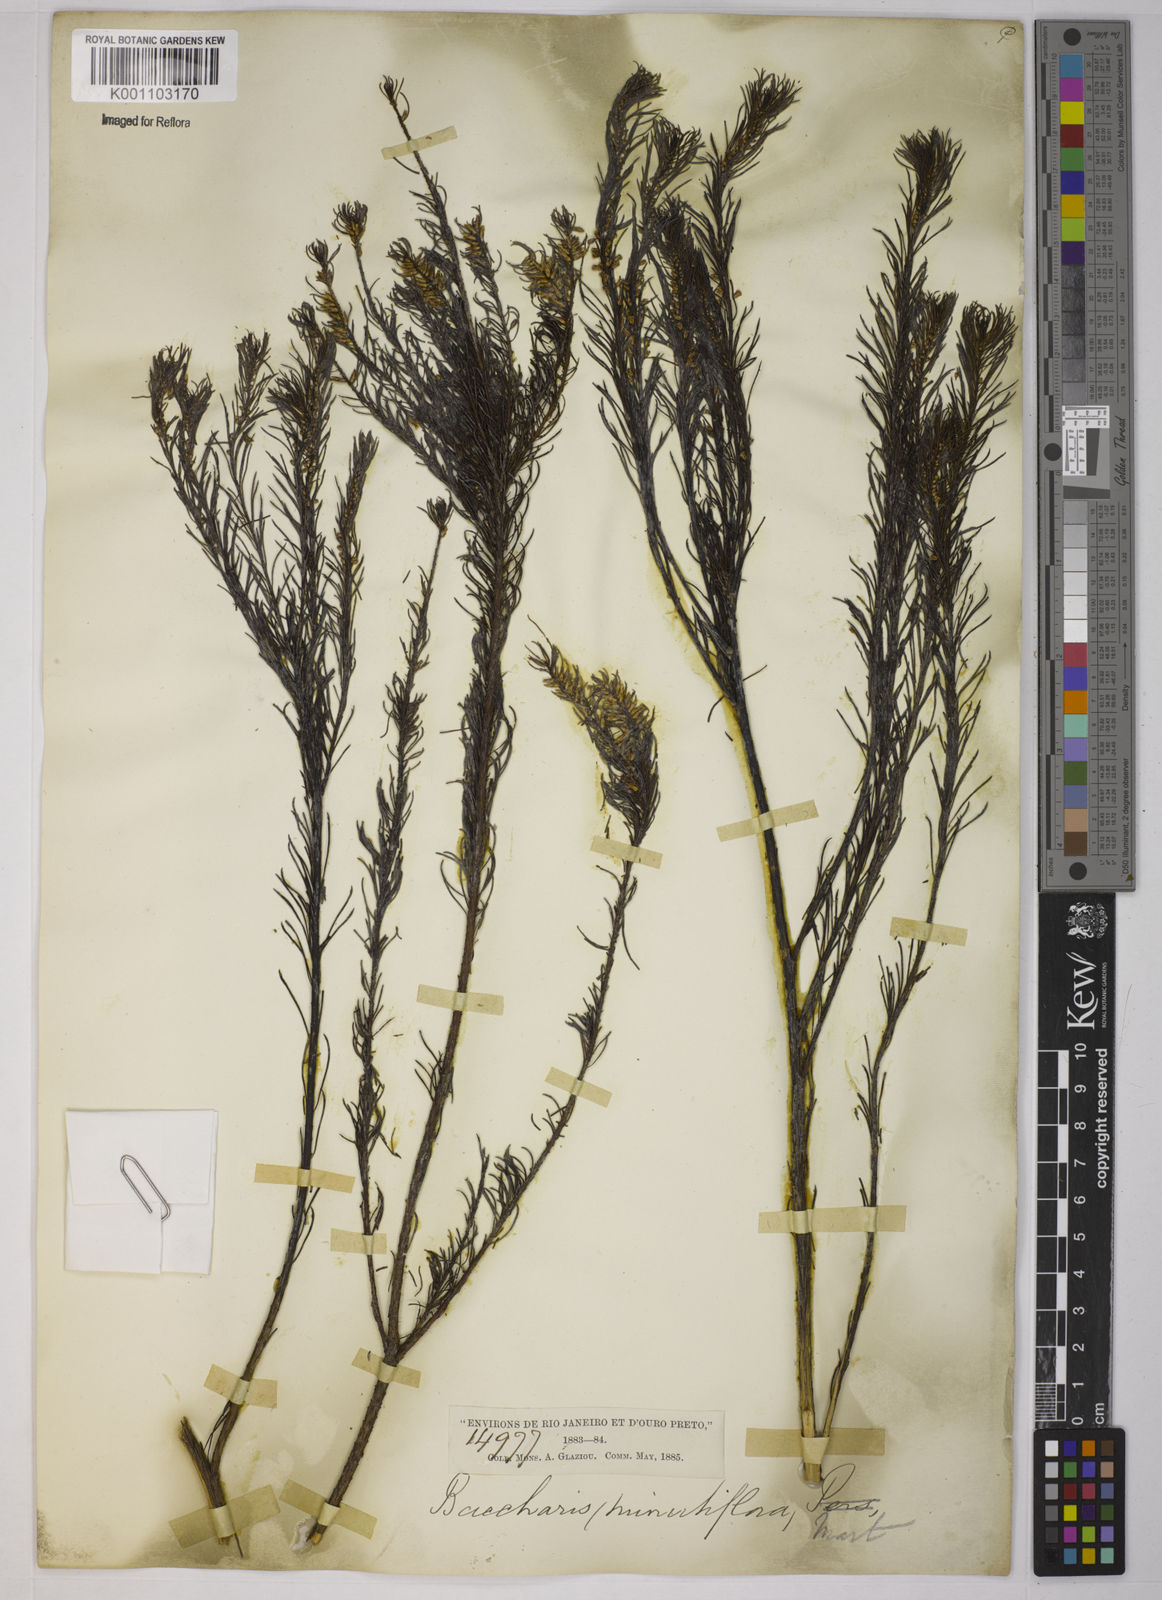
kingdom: Plantae
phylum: Tracheophyta
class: Magnoliopsida
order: Asterales
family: Asteraceae
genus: Baccharis
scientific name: Baccharis multiflora
